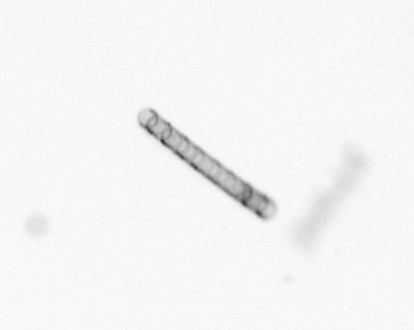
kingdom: Chromista
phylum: Ochrophyta
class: Bacillariophyceae
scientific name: Bacillariophyceae
